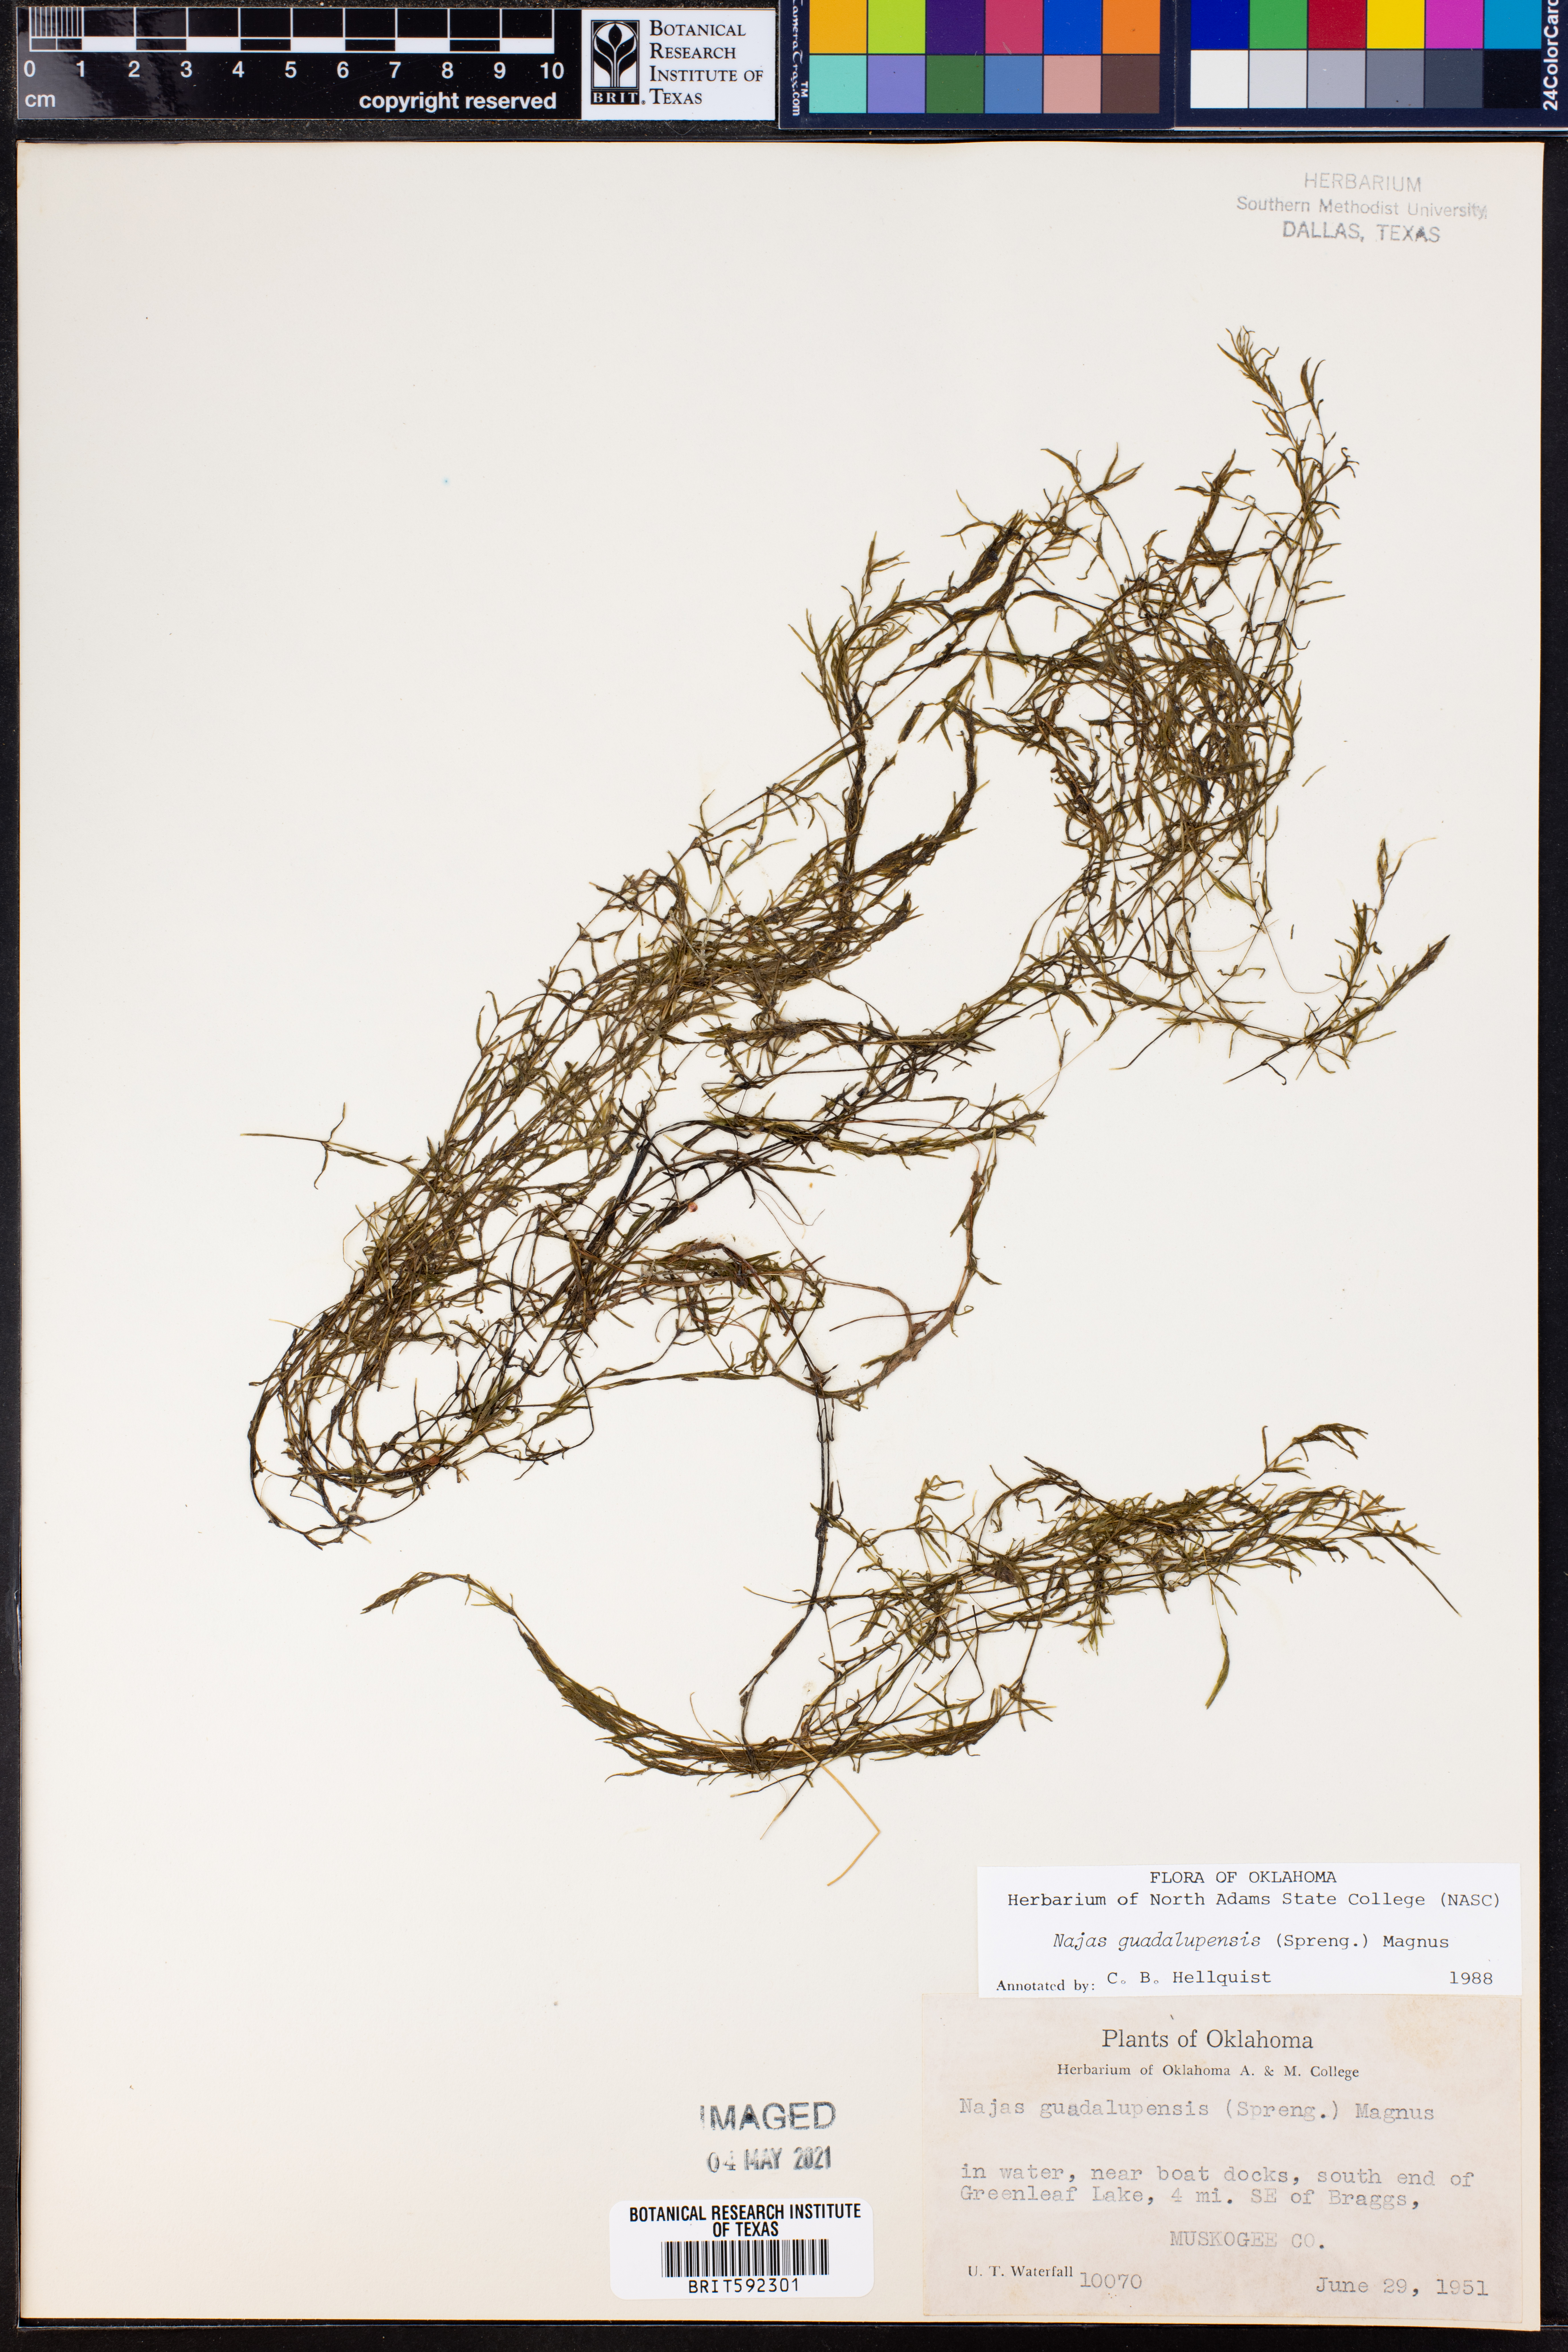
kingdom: Plantae
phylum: Tracheophyta
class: Liliopsida
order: Alismatales
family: Hydrocharitaceae
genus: Najas
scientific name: Najas guadalupensis
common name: Southern naiad
